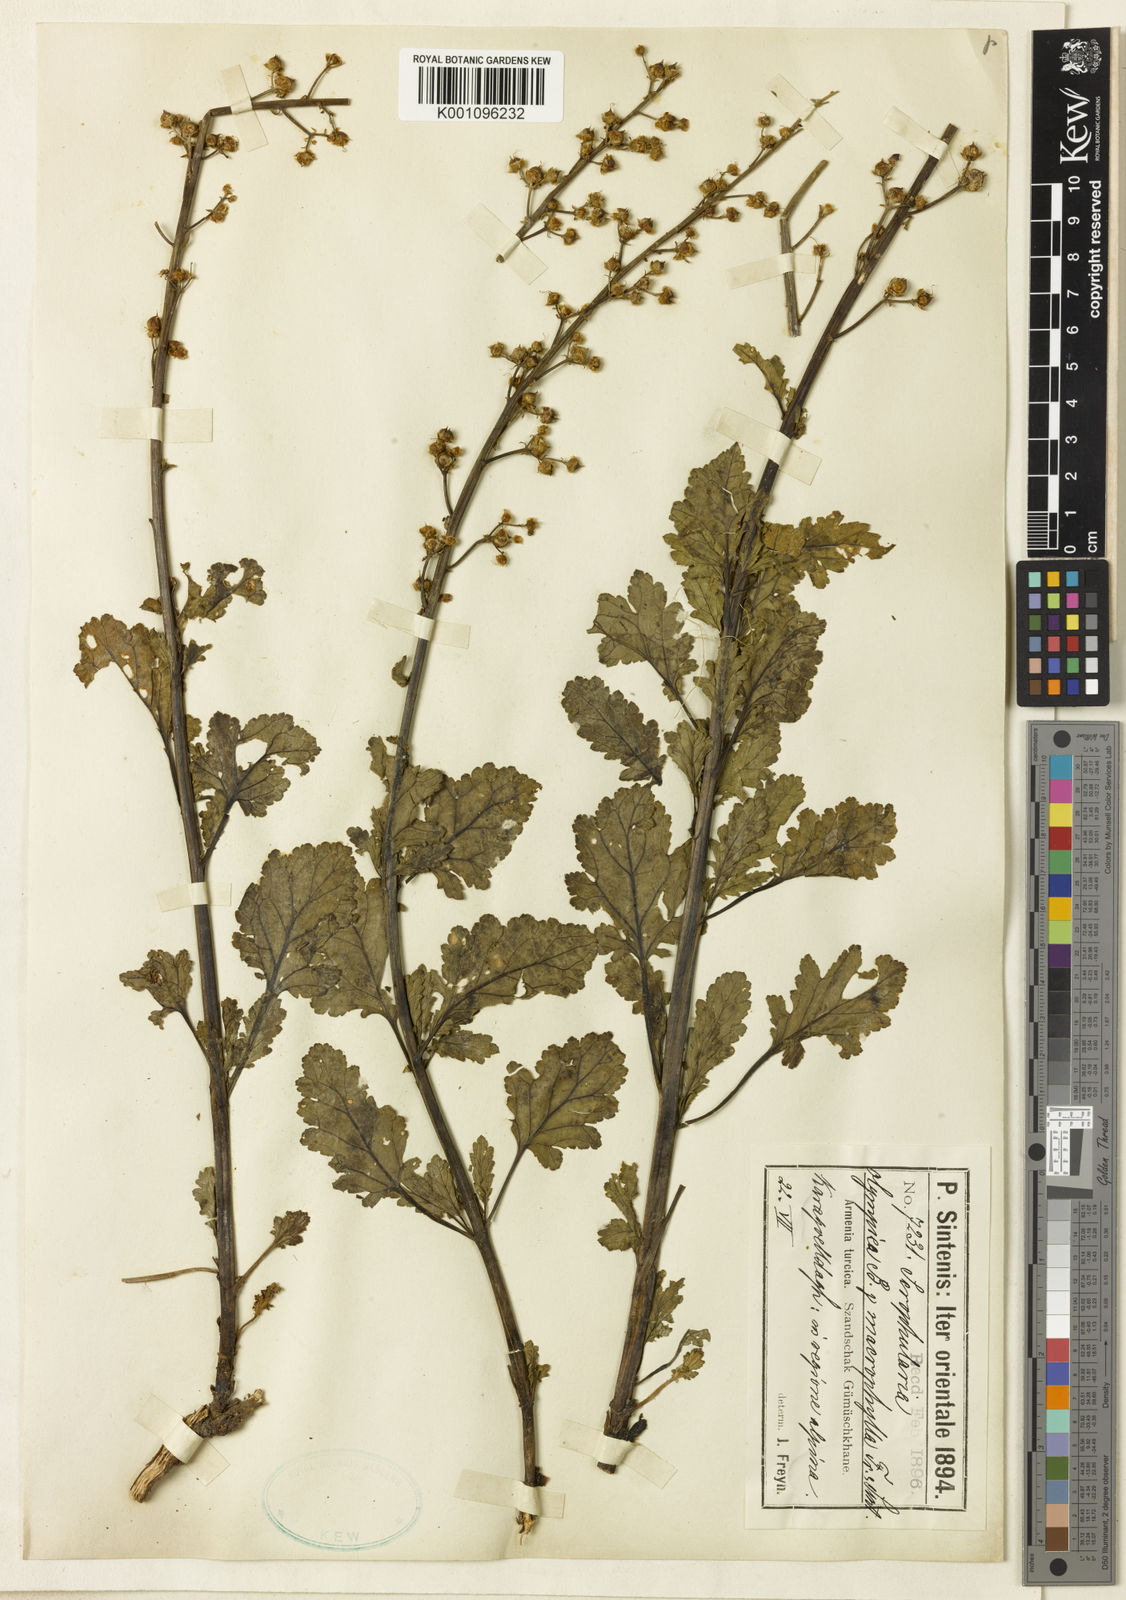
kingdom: Plantae
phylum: Tracheophyta
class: Magnoliopsida
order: Lamiales
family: Scrophulariaceae
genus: Scrophularia
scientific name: Scrophularia olympica
